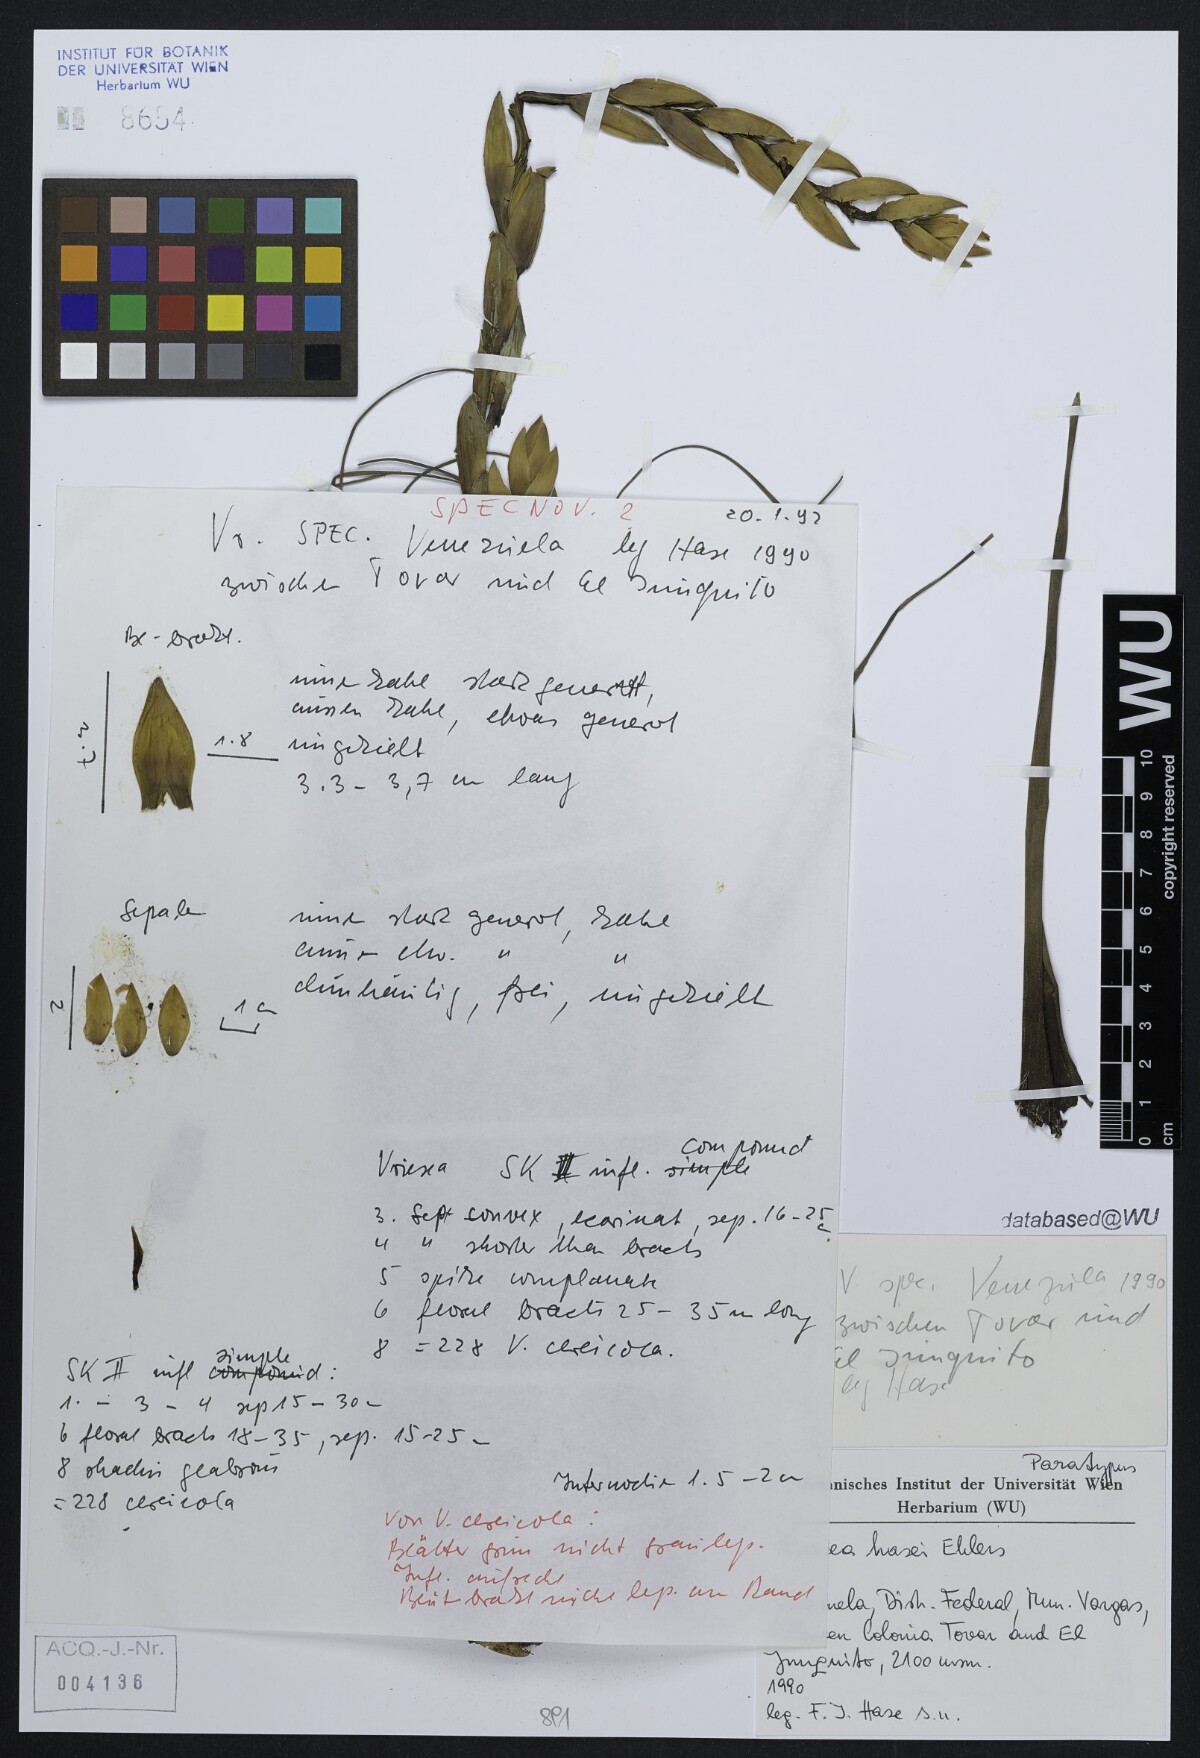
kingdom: Plantae
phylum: Tracheophyta
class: Liliopsida
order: Poales
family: Bromeliaceae
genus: Tillandsia
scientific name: Tillandsia frank-hasei
